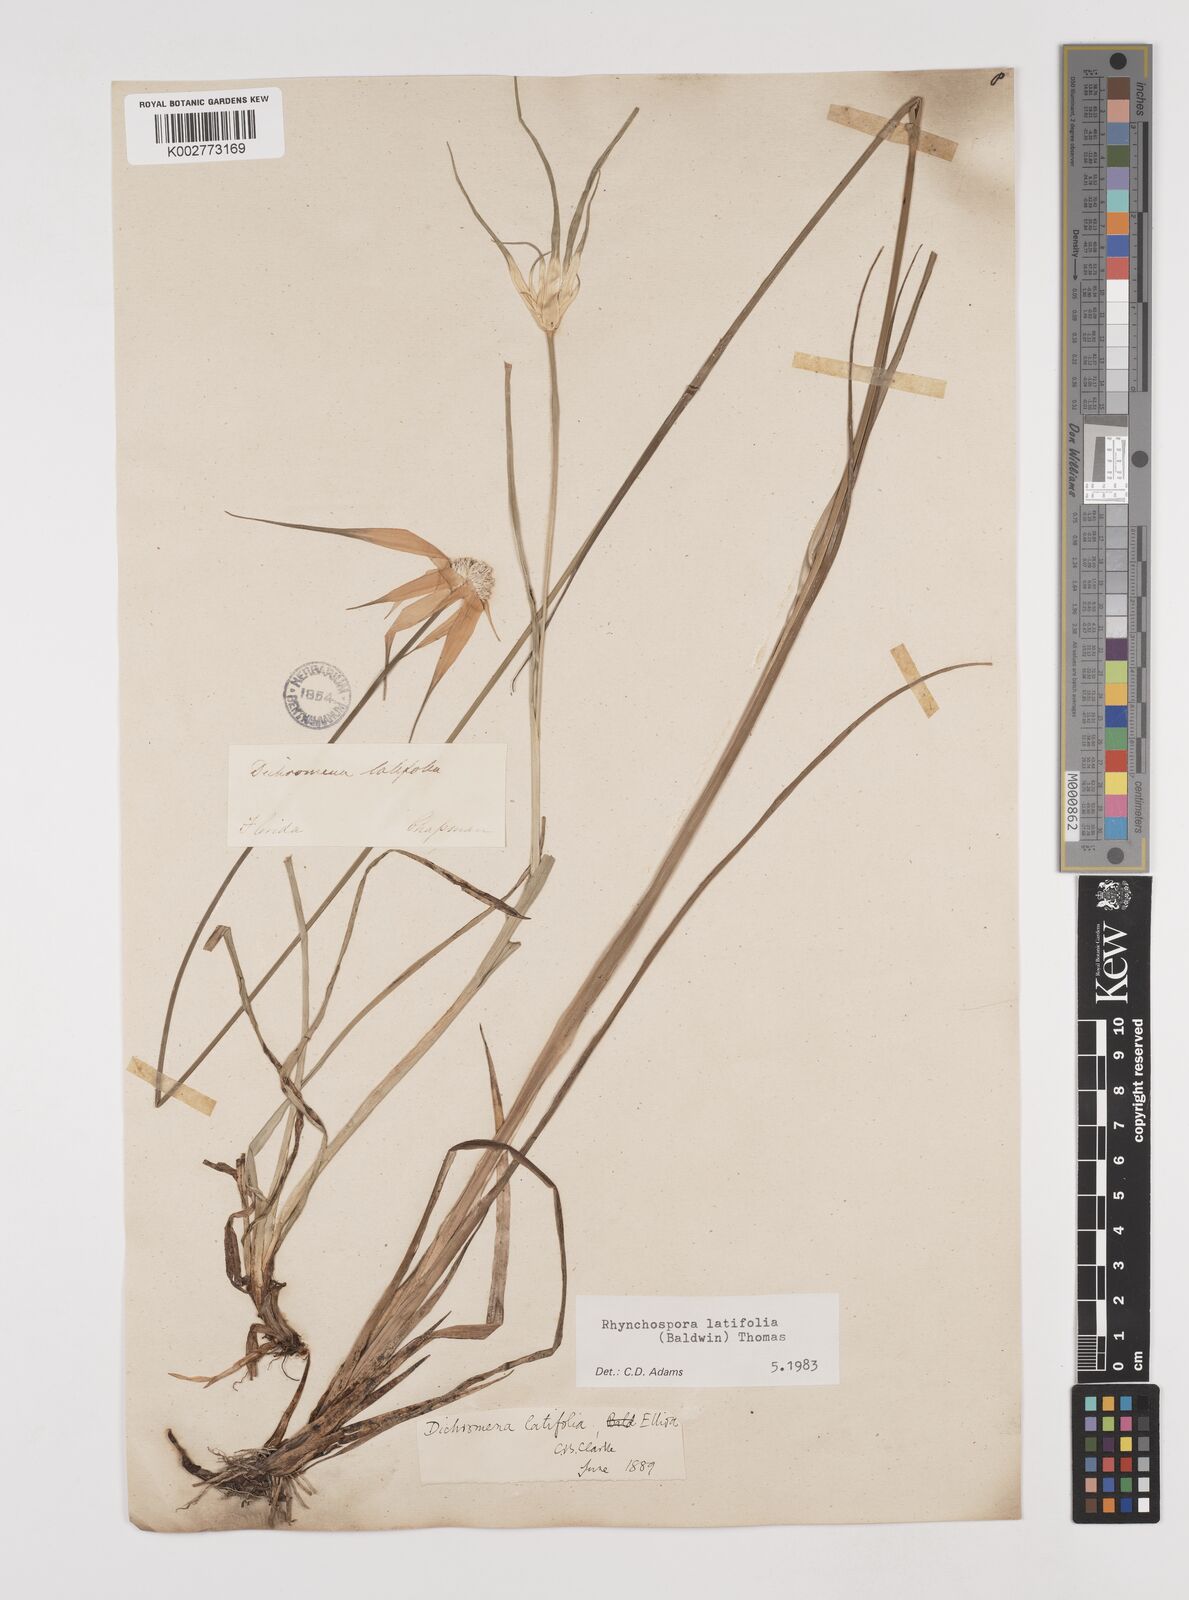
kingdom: Plantae
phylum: Tracheophyta
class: Liliopsida
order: Poales
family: Cyperaceae
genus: Rhynchospora
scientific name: Rhynchospora colorata
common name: Star sedge
